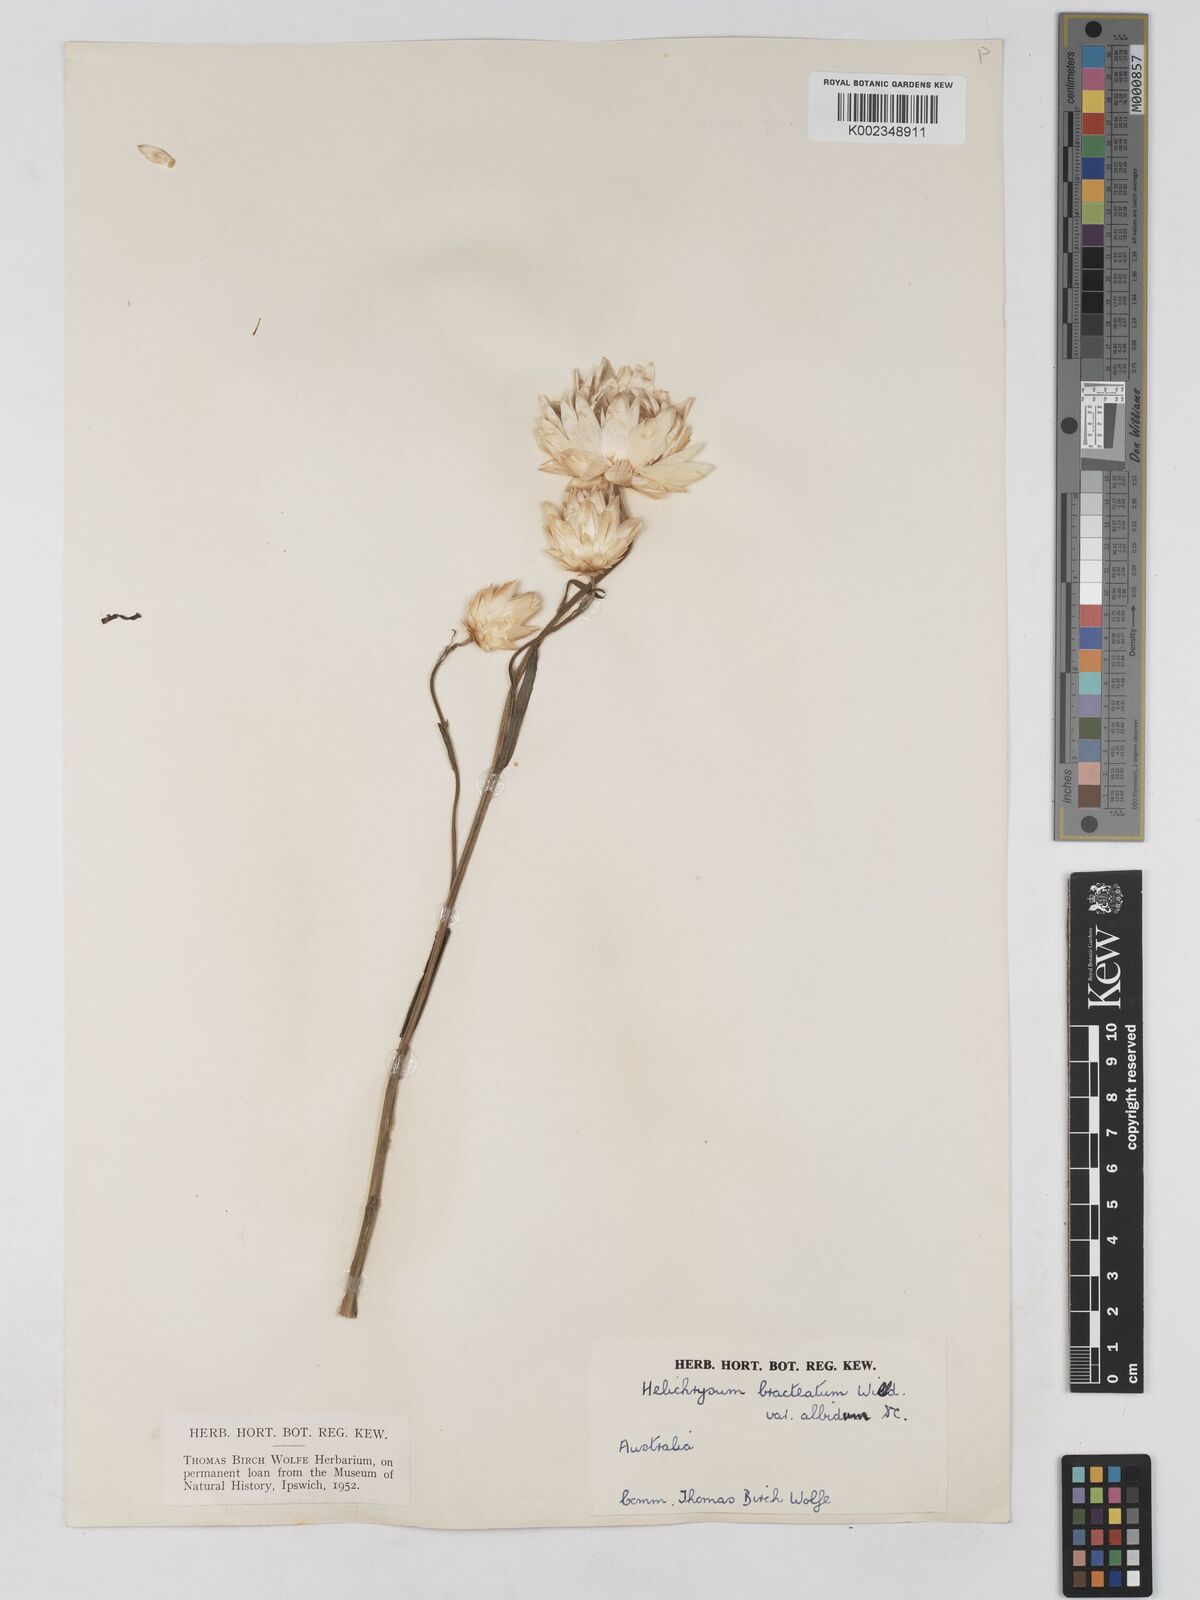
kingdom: Plantae
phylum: Tracheophyta
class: Magnoliopsida
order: Asterales
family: Asteraceae
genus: Xerochrysum
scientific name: Xerochrysum bracteatum
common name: Bracted strawflower
